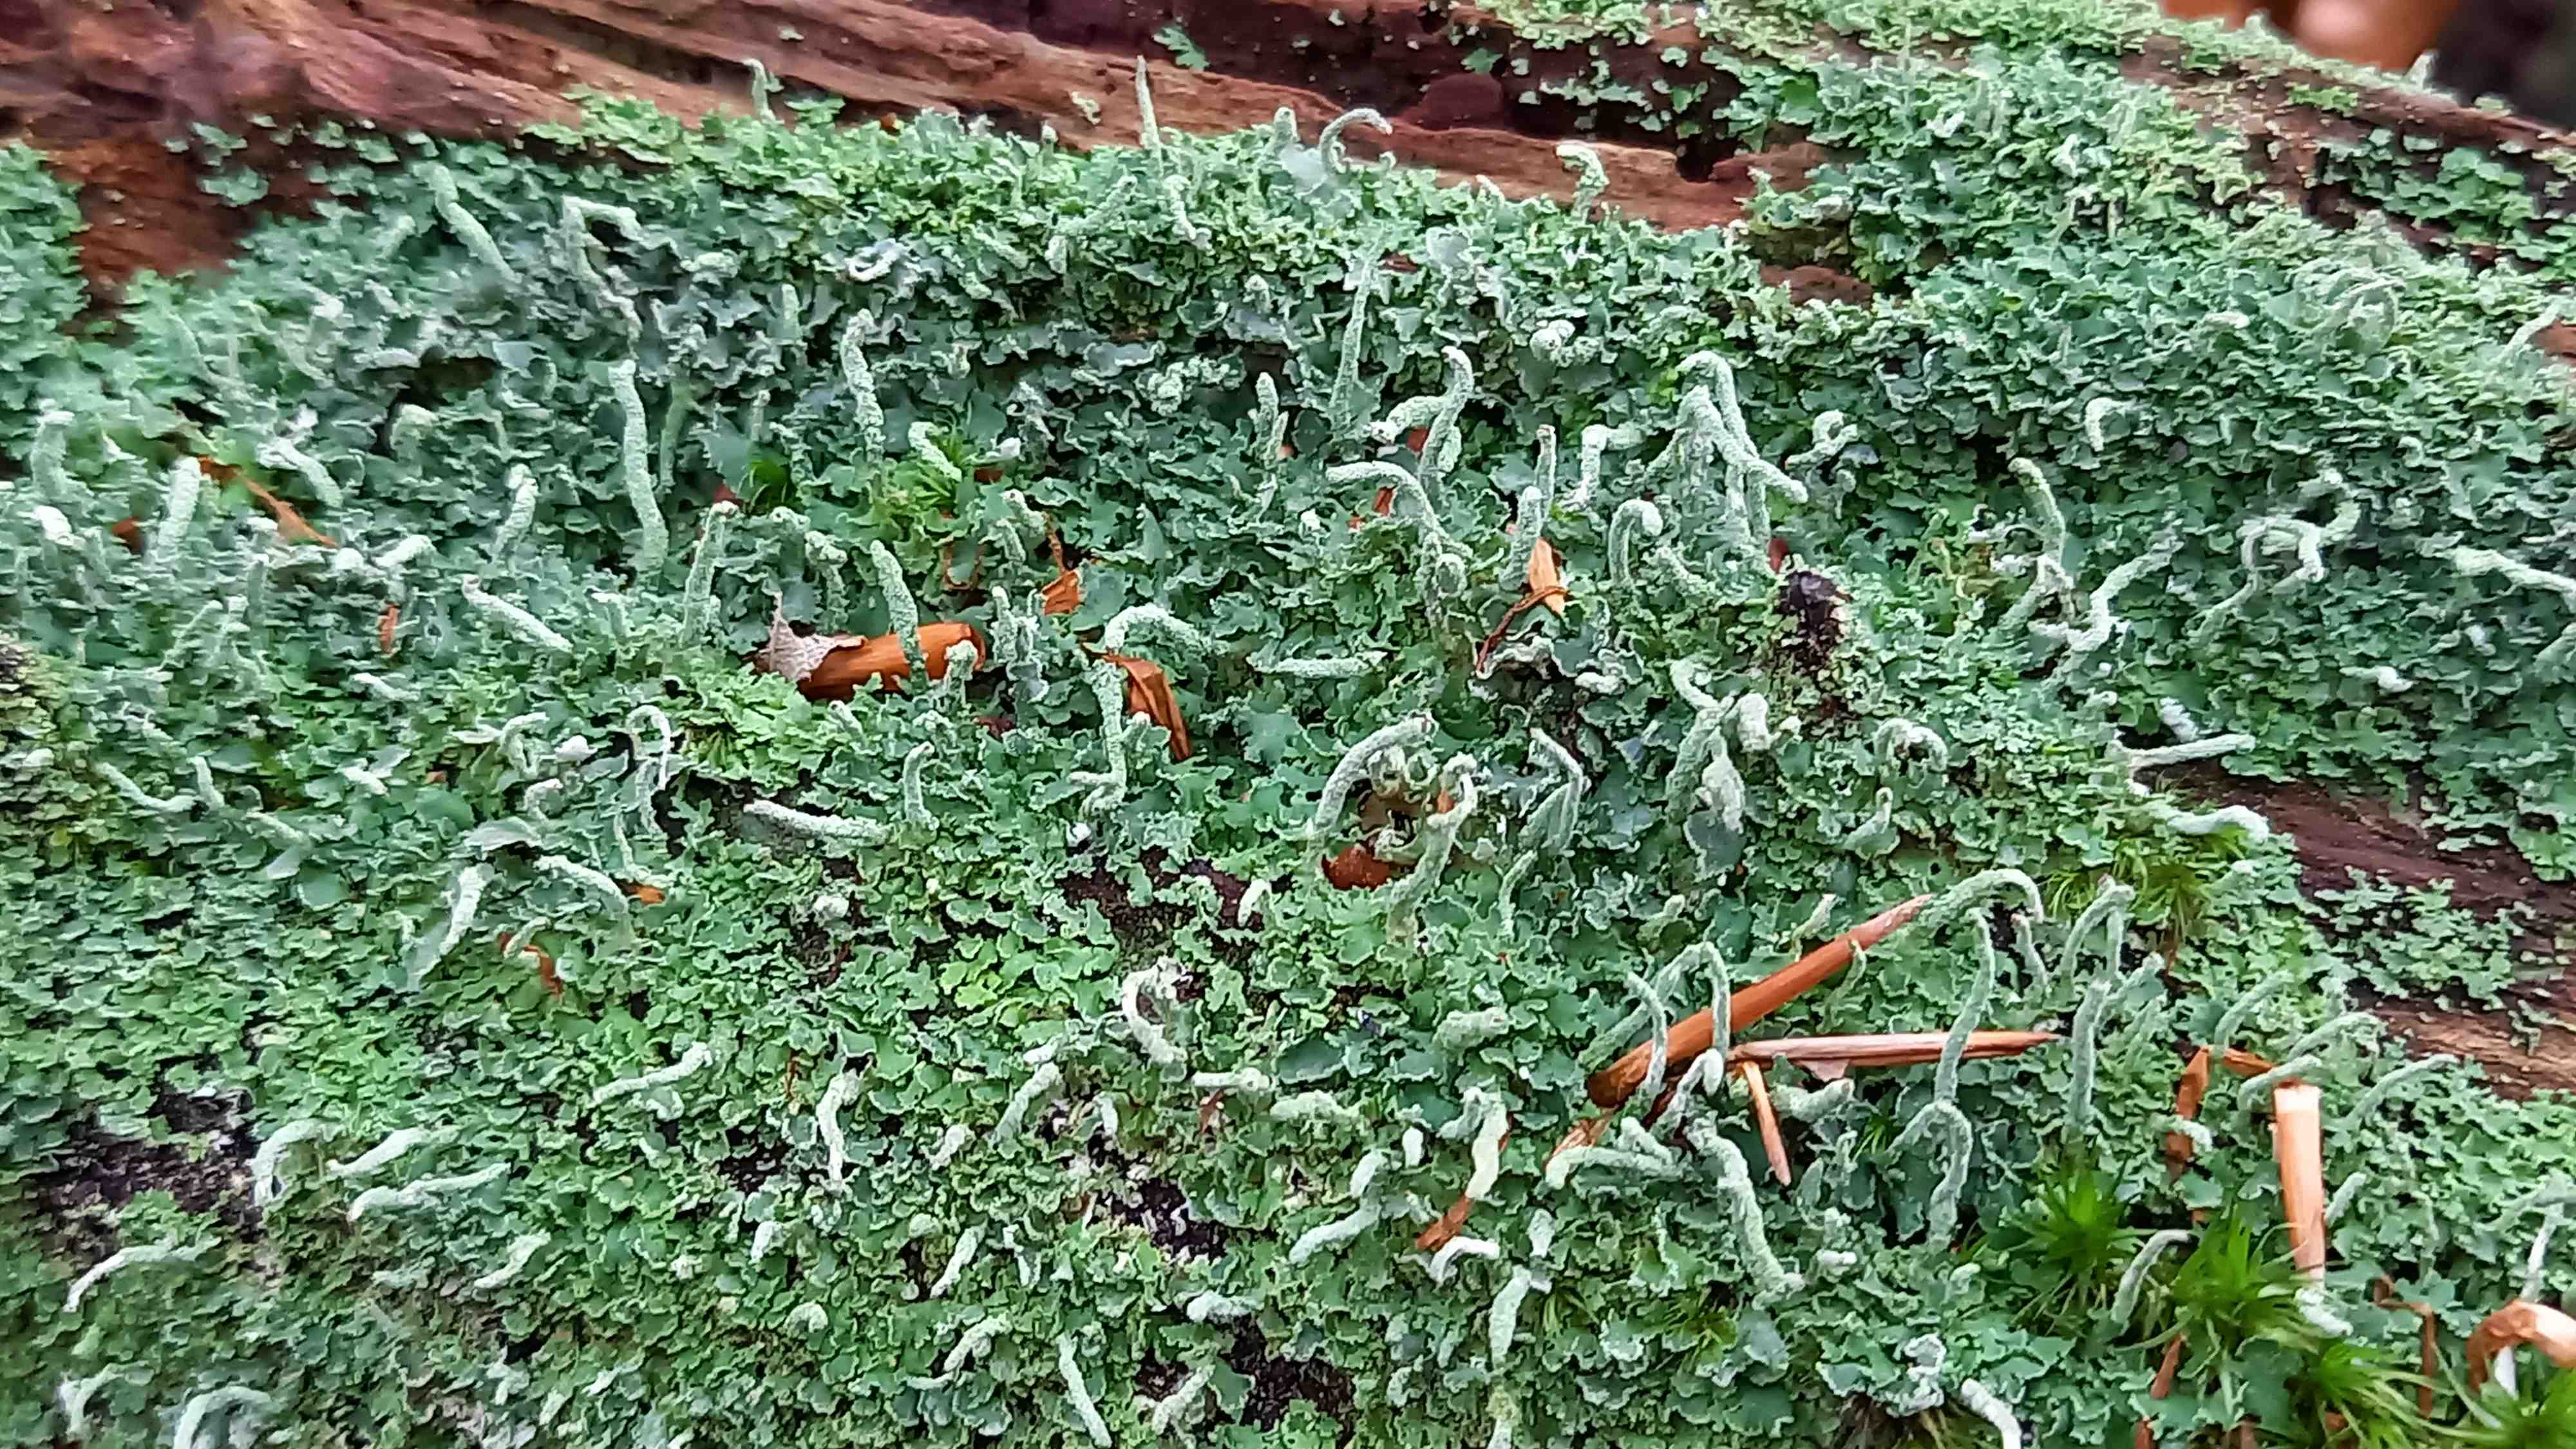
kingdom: Fungi
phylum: Ascomycota
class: Lecanoromycetes
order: Lecanorales
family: Cladoniaceae
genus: Cladonia
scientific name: Cladonia coniocraea
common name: træfods-bægerlav
